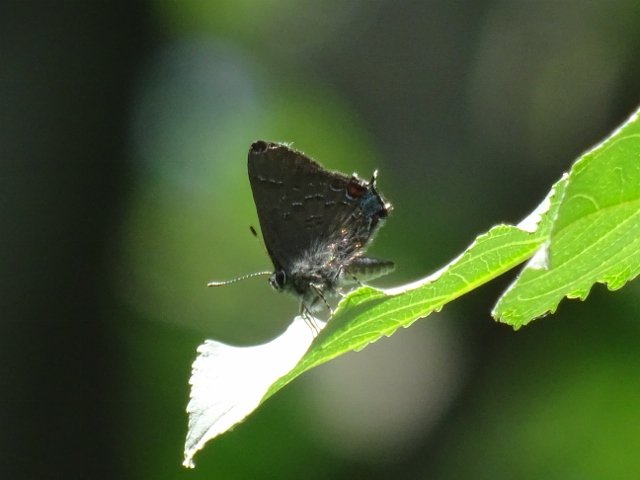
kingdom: Animalia
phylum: Arthropoda
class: Insecta
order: Lepidoptera
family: Lycaenidae
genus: Satyrium
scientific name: Satyrium calanus
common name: Banded Hairstreak
